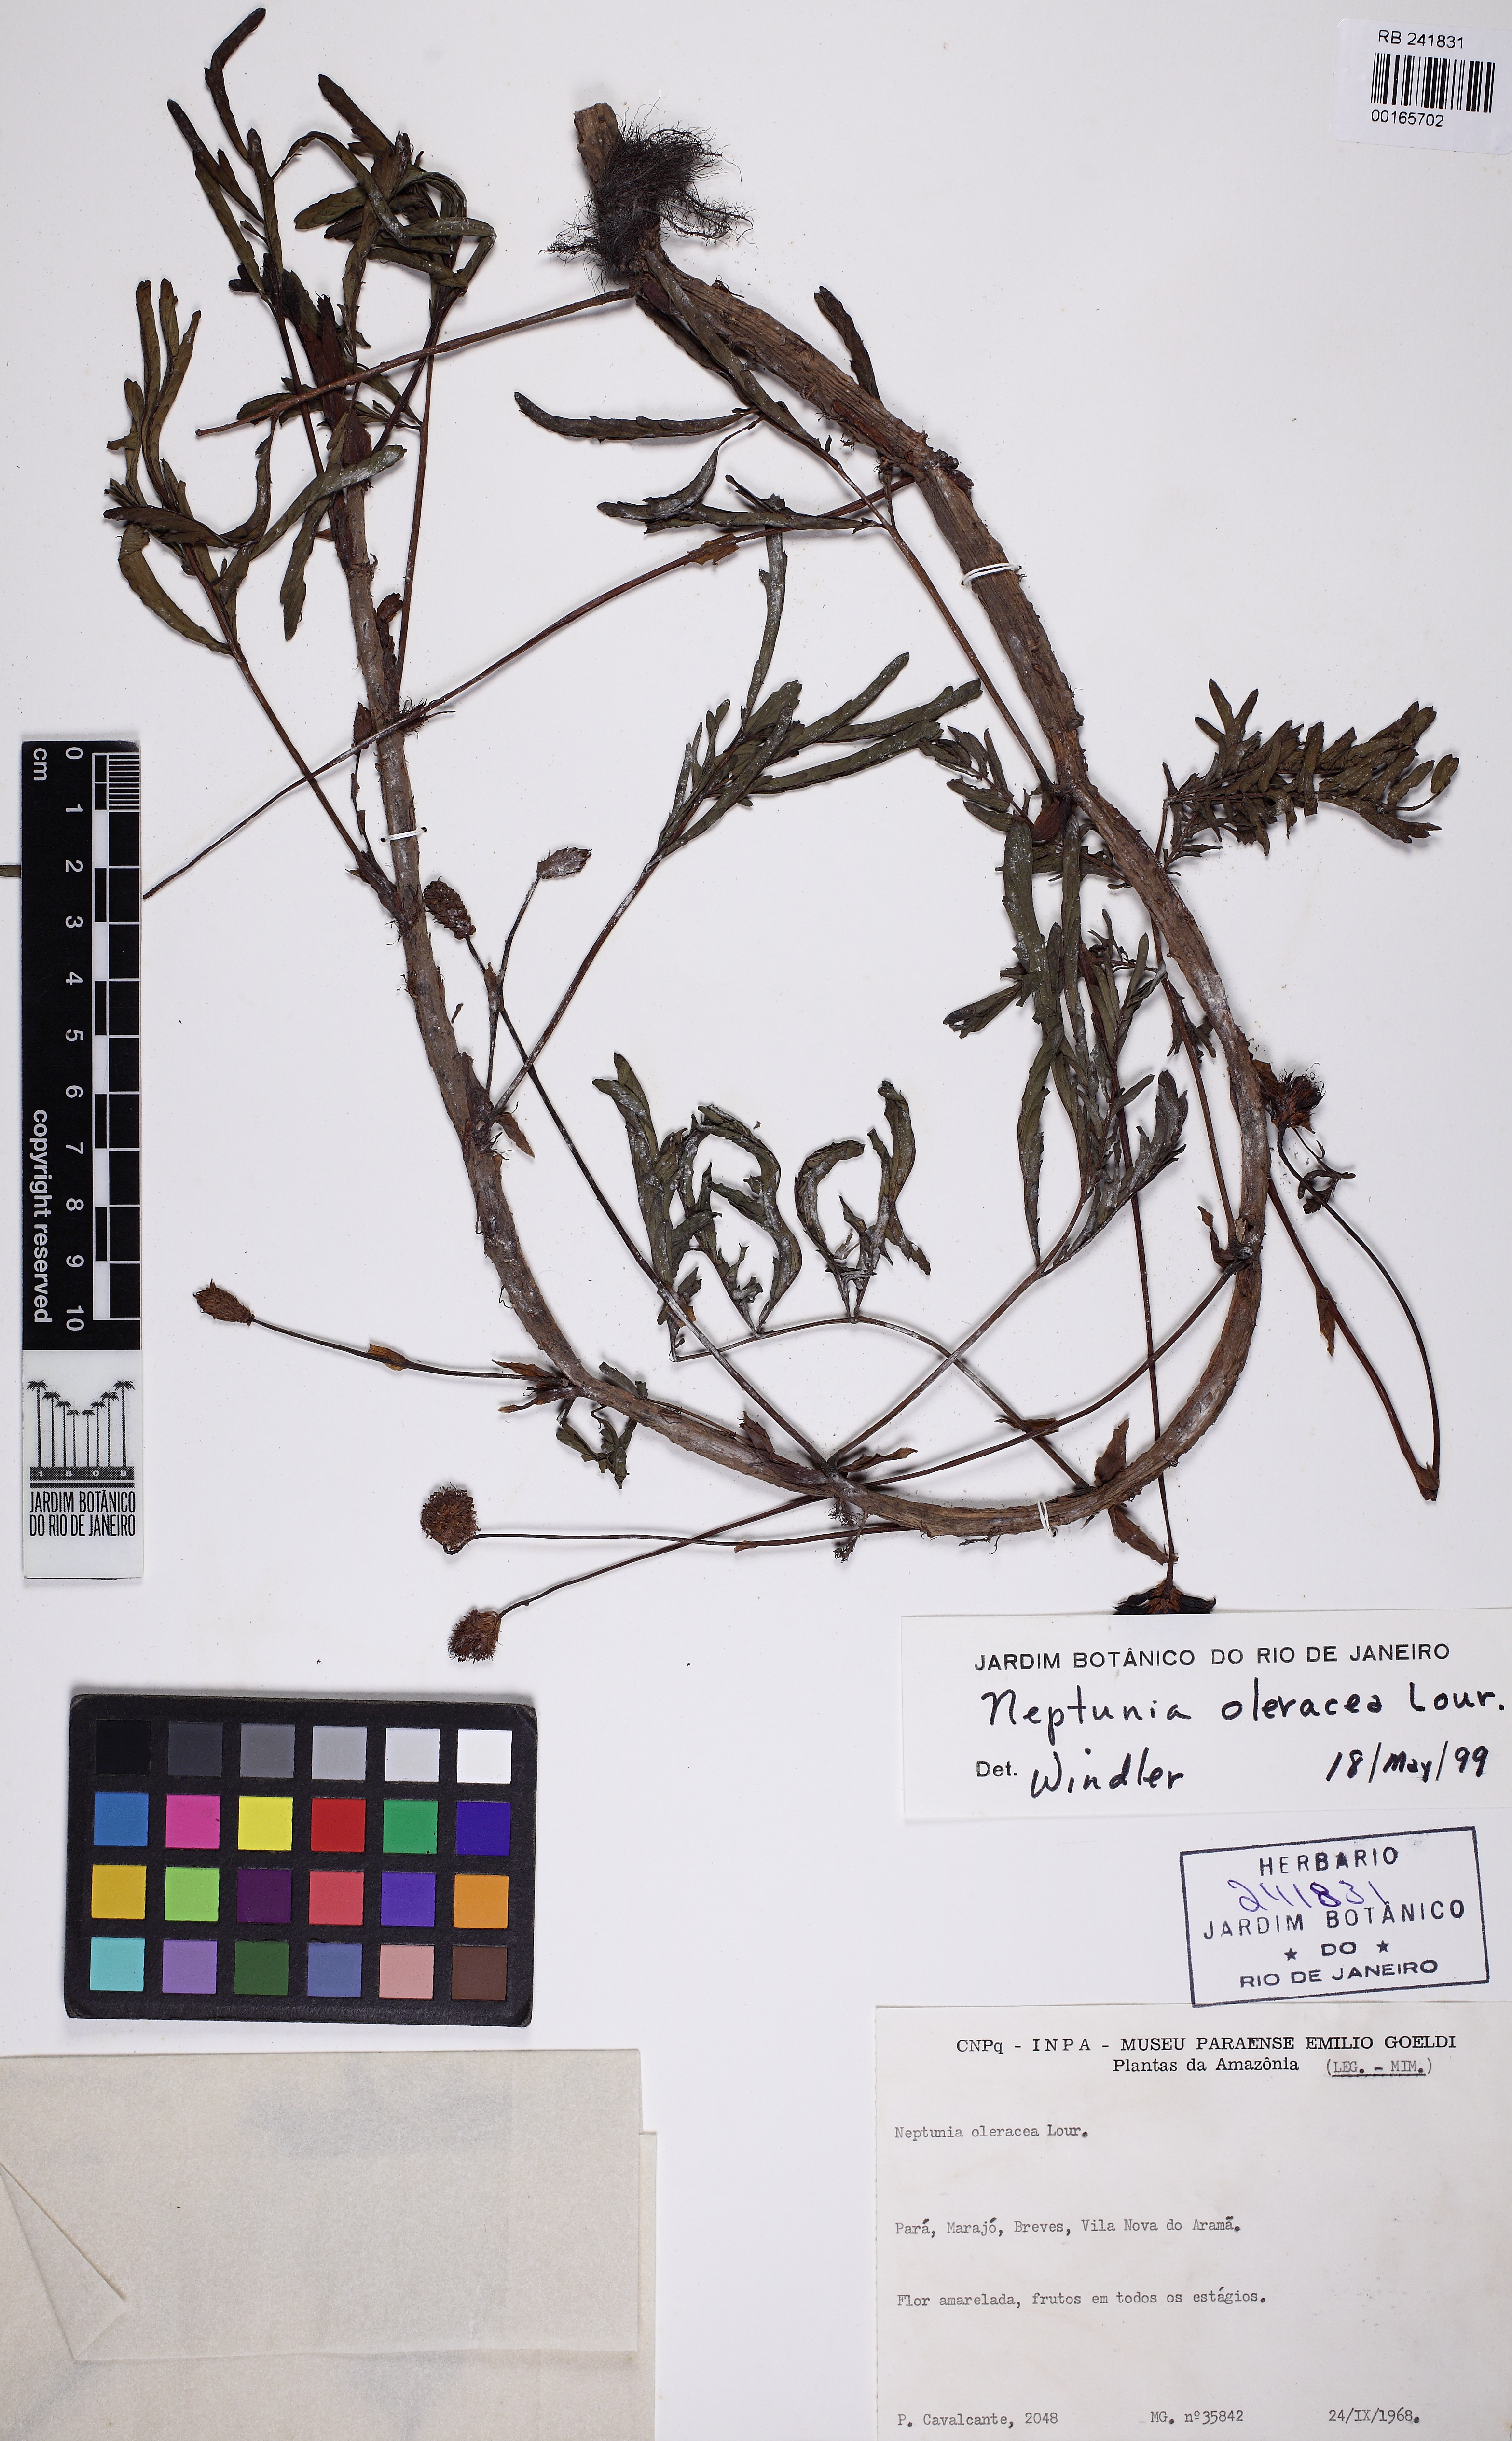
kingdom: Plantae
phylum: Tracheophyta
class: Magnoliopsida
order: Fabales
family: Fabaceae
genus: Neptunia
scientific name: Neptunia prostrata
